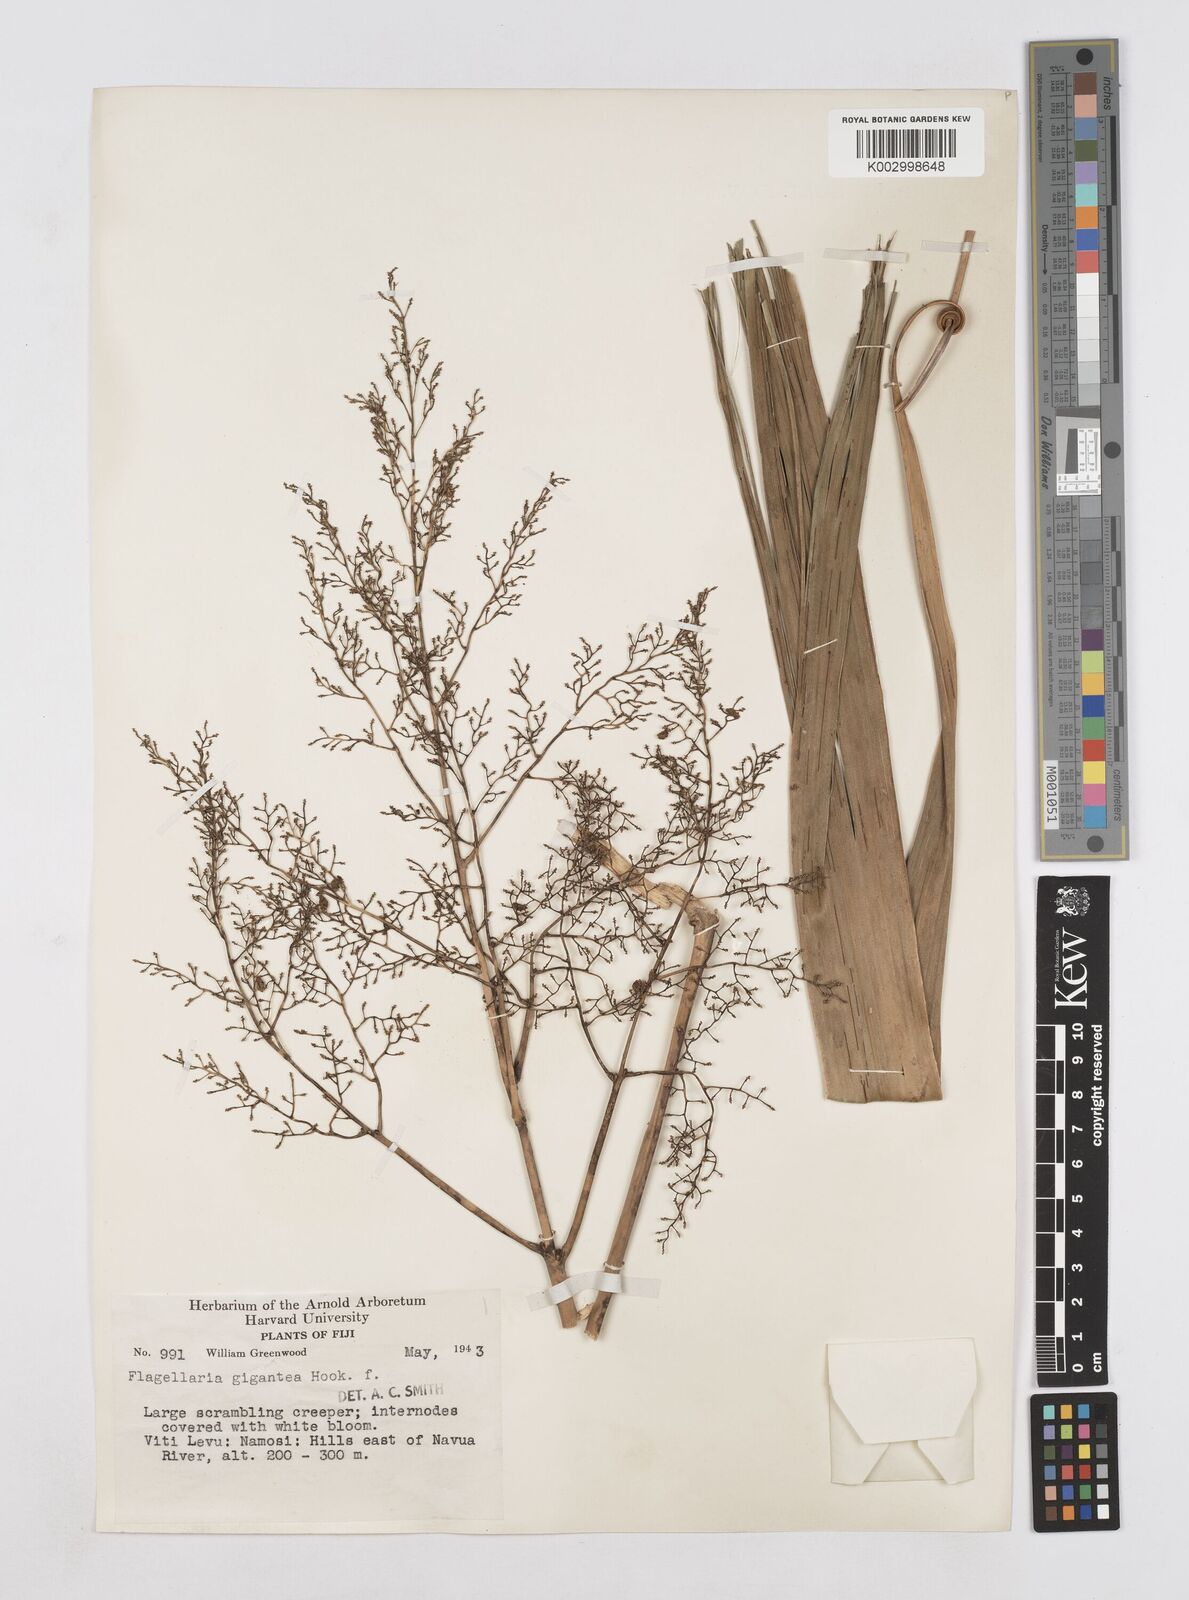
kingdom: Plantae
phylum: Tracheophyta
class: Liliopsida
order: Poales
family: Flagellariaceae
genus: Flagellaria
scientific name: Flagellaria gigantea
